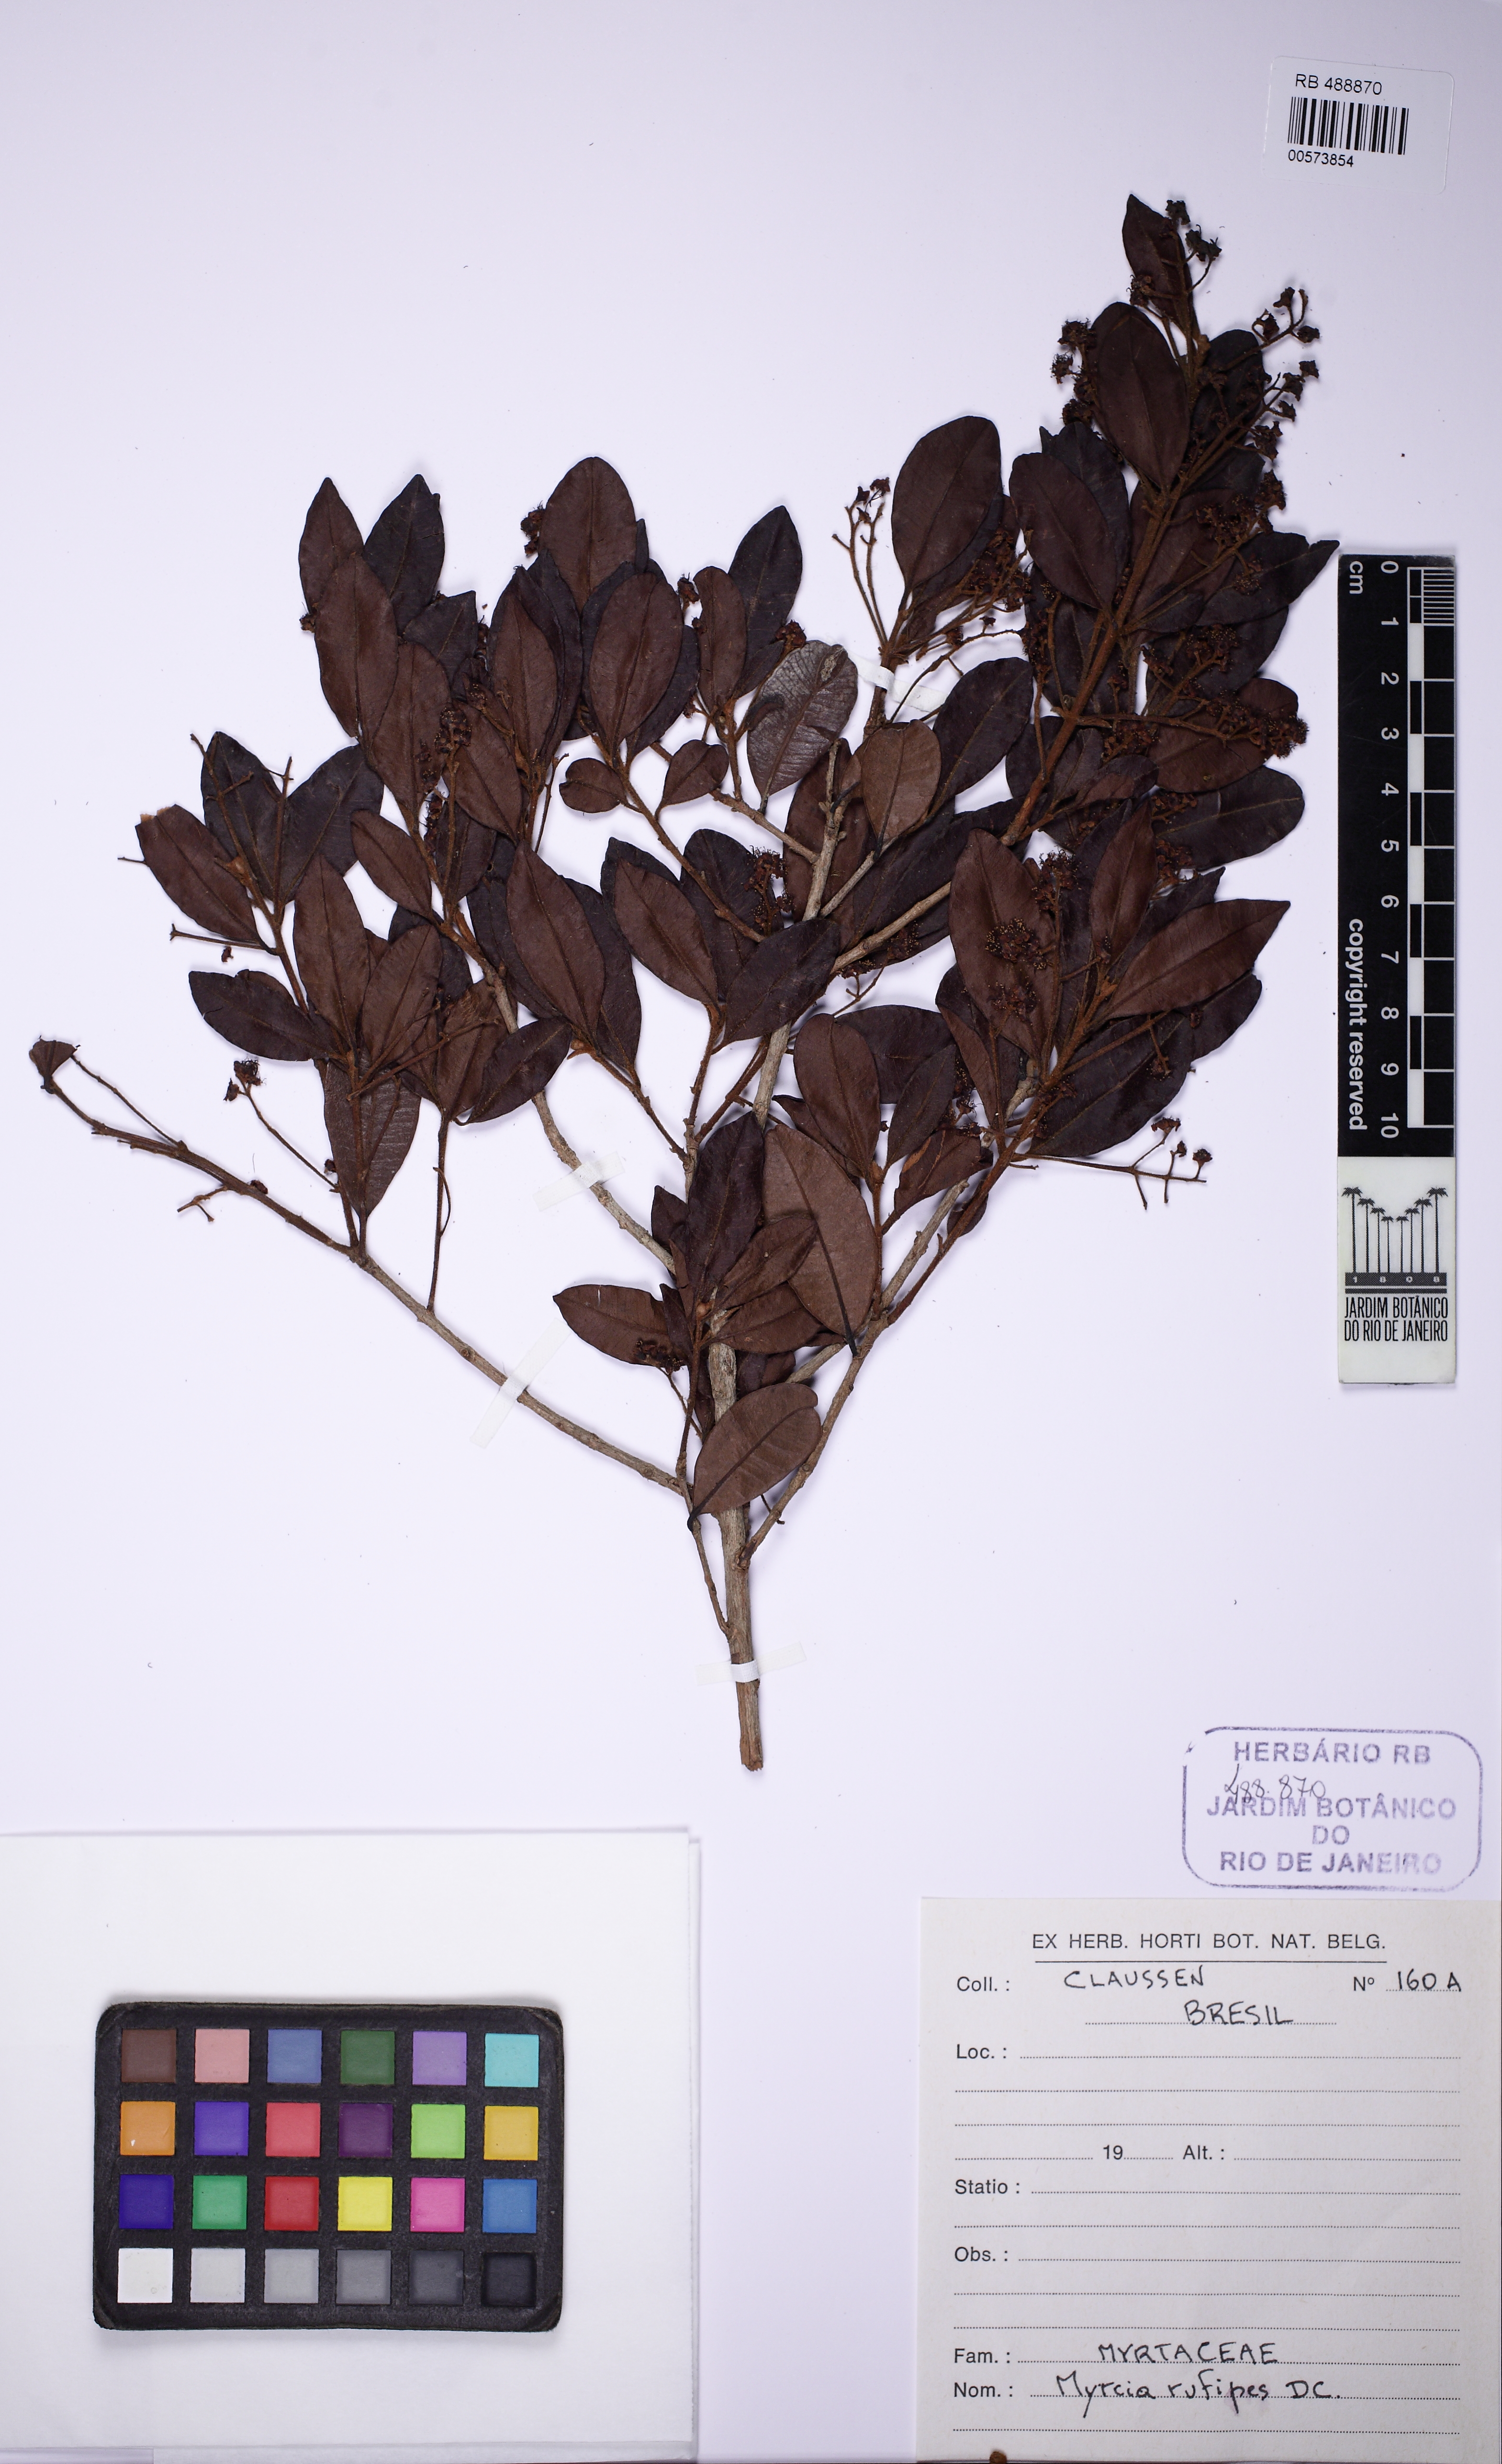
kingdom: Plantae
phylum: Tracheophyta
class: Magnoliopsida
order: Myrtales
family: Myrtaceae
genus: Myrcia
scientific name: Myrcia rufipes
